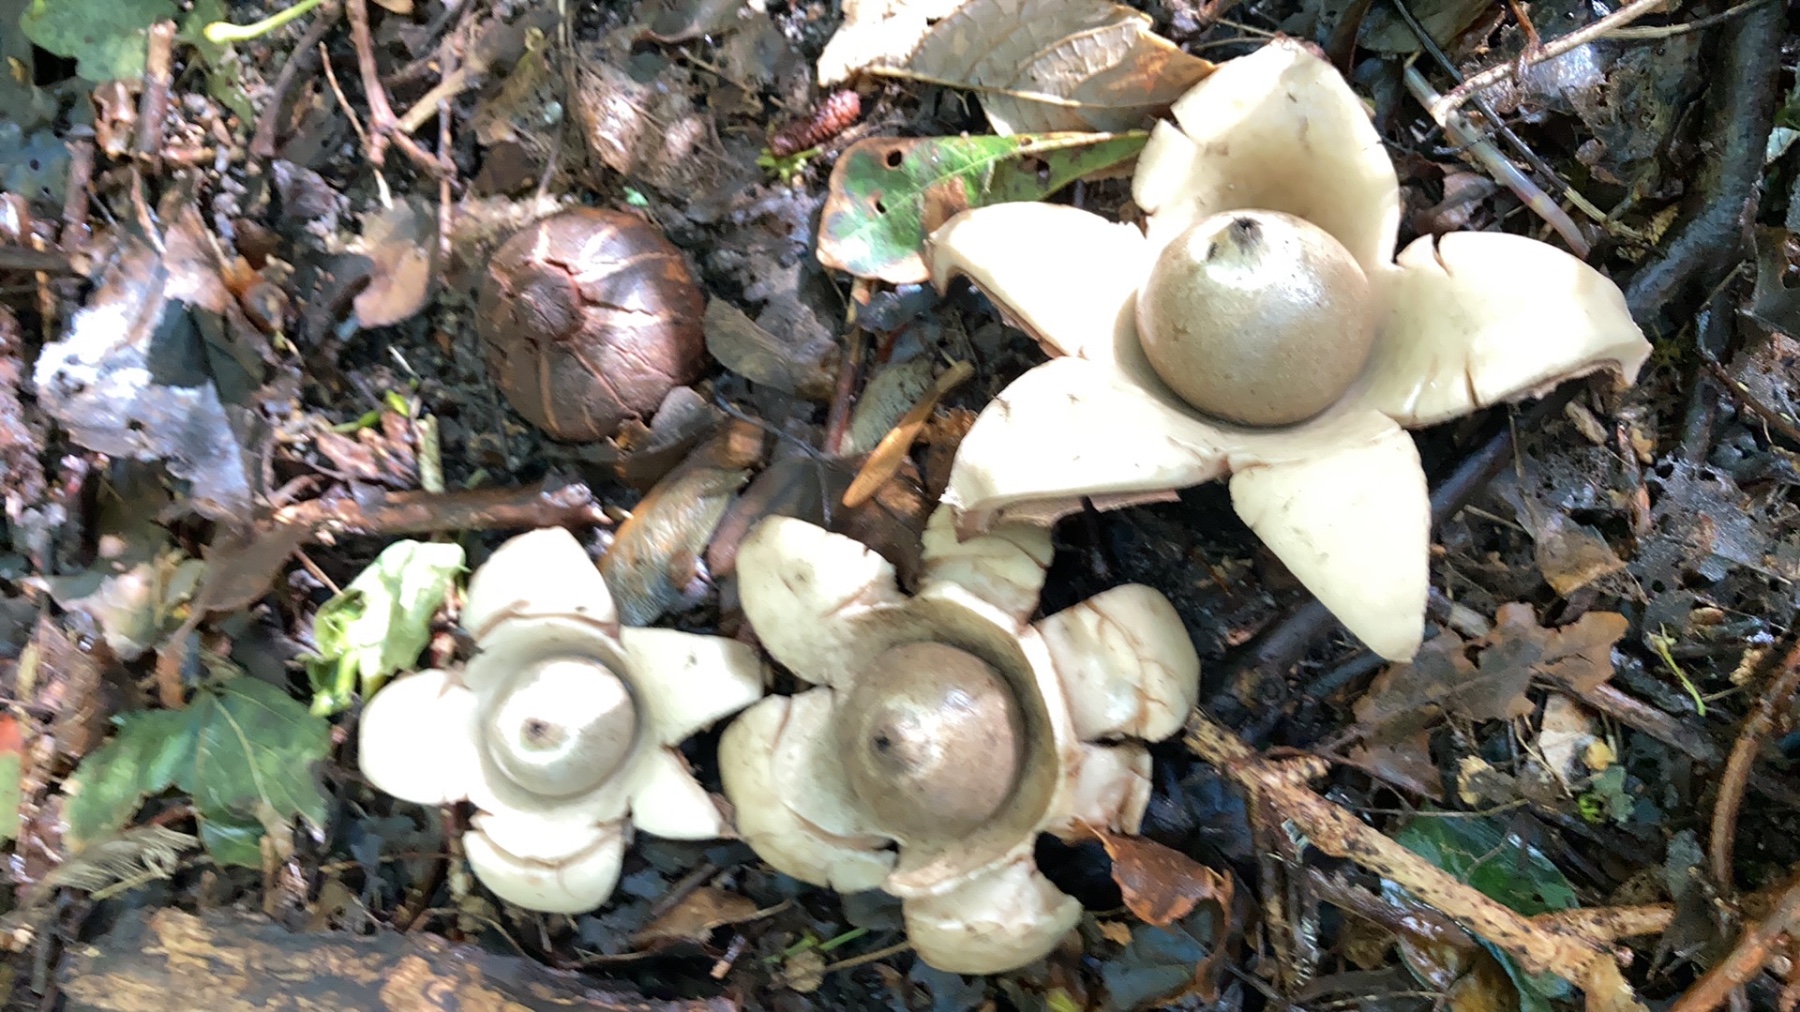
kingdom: Fungi
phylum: Basidiomycota
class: Agaricomycetes
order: Geastrales
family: Geastraceae
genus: Geastrum
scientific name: Geastrum michelianum
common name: kødet stjernebold
